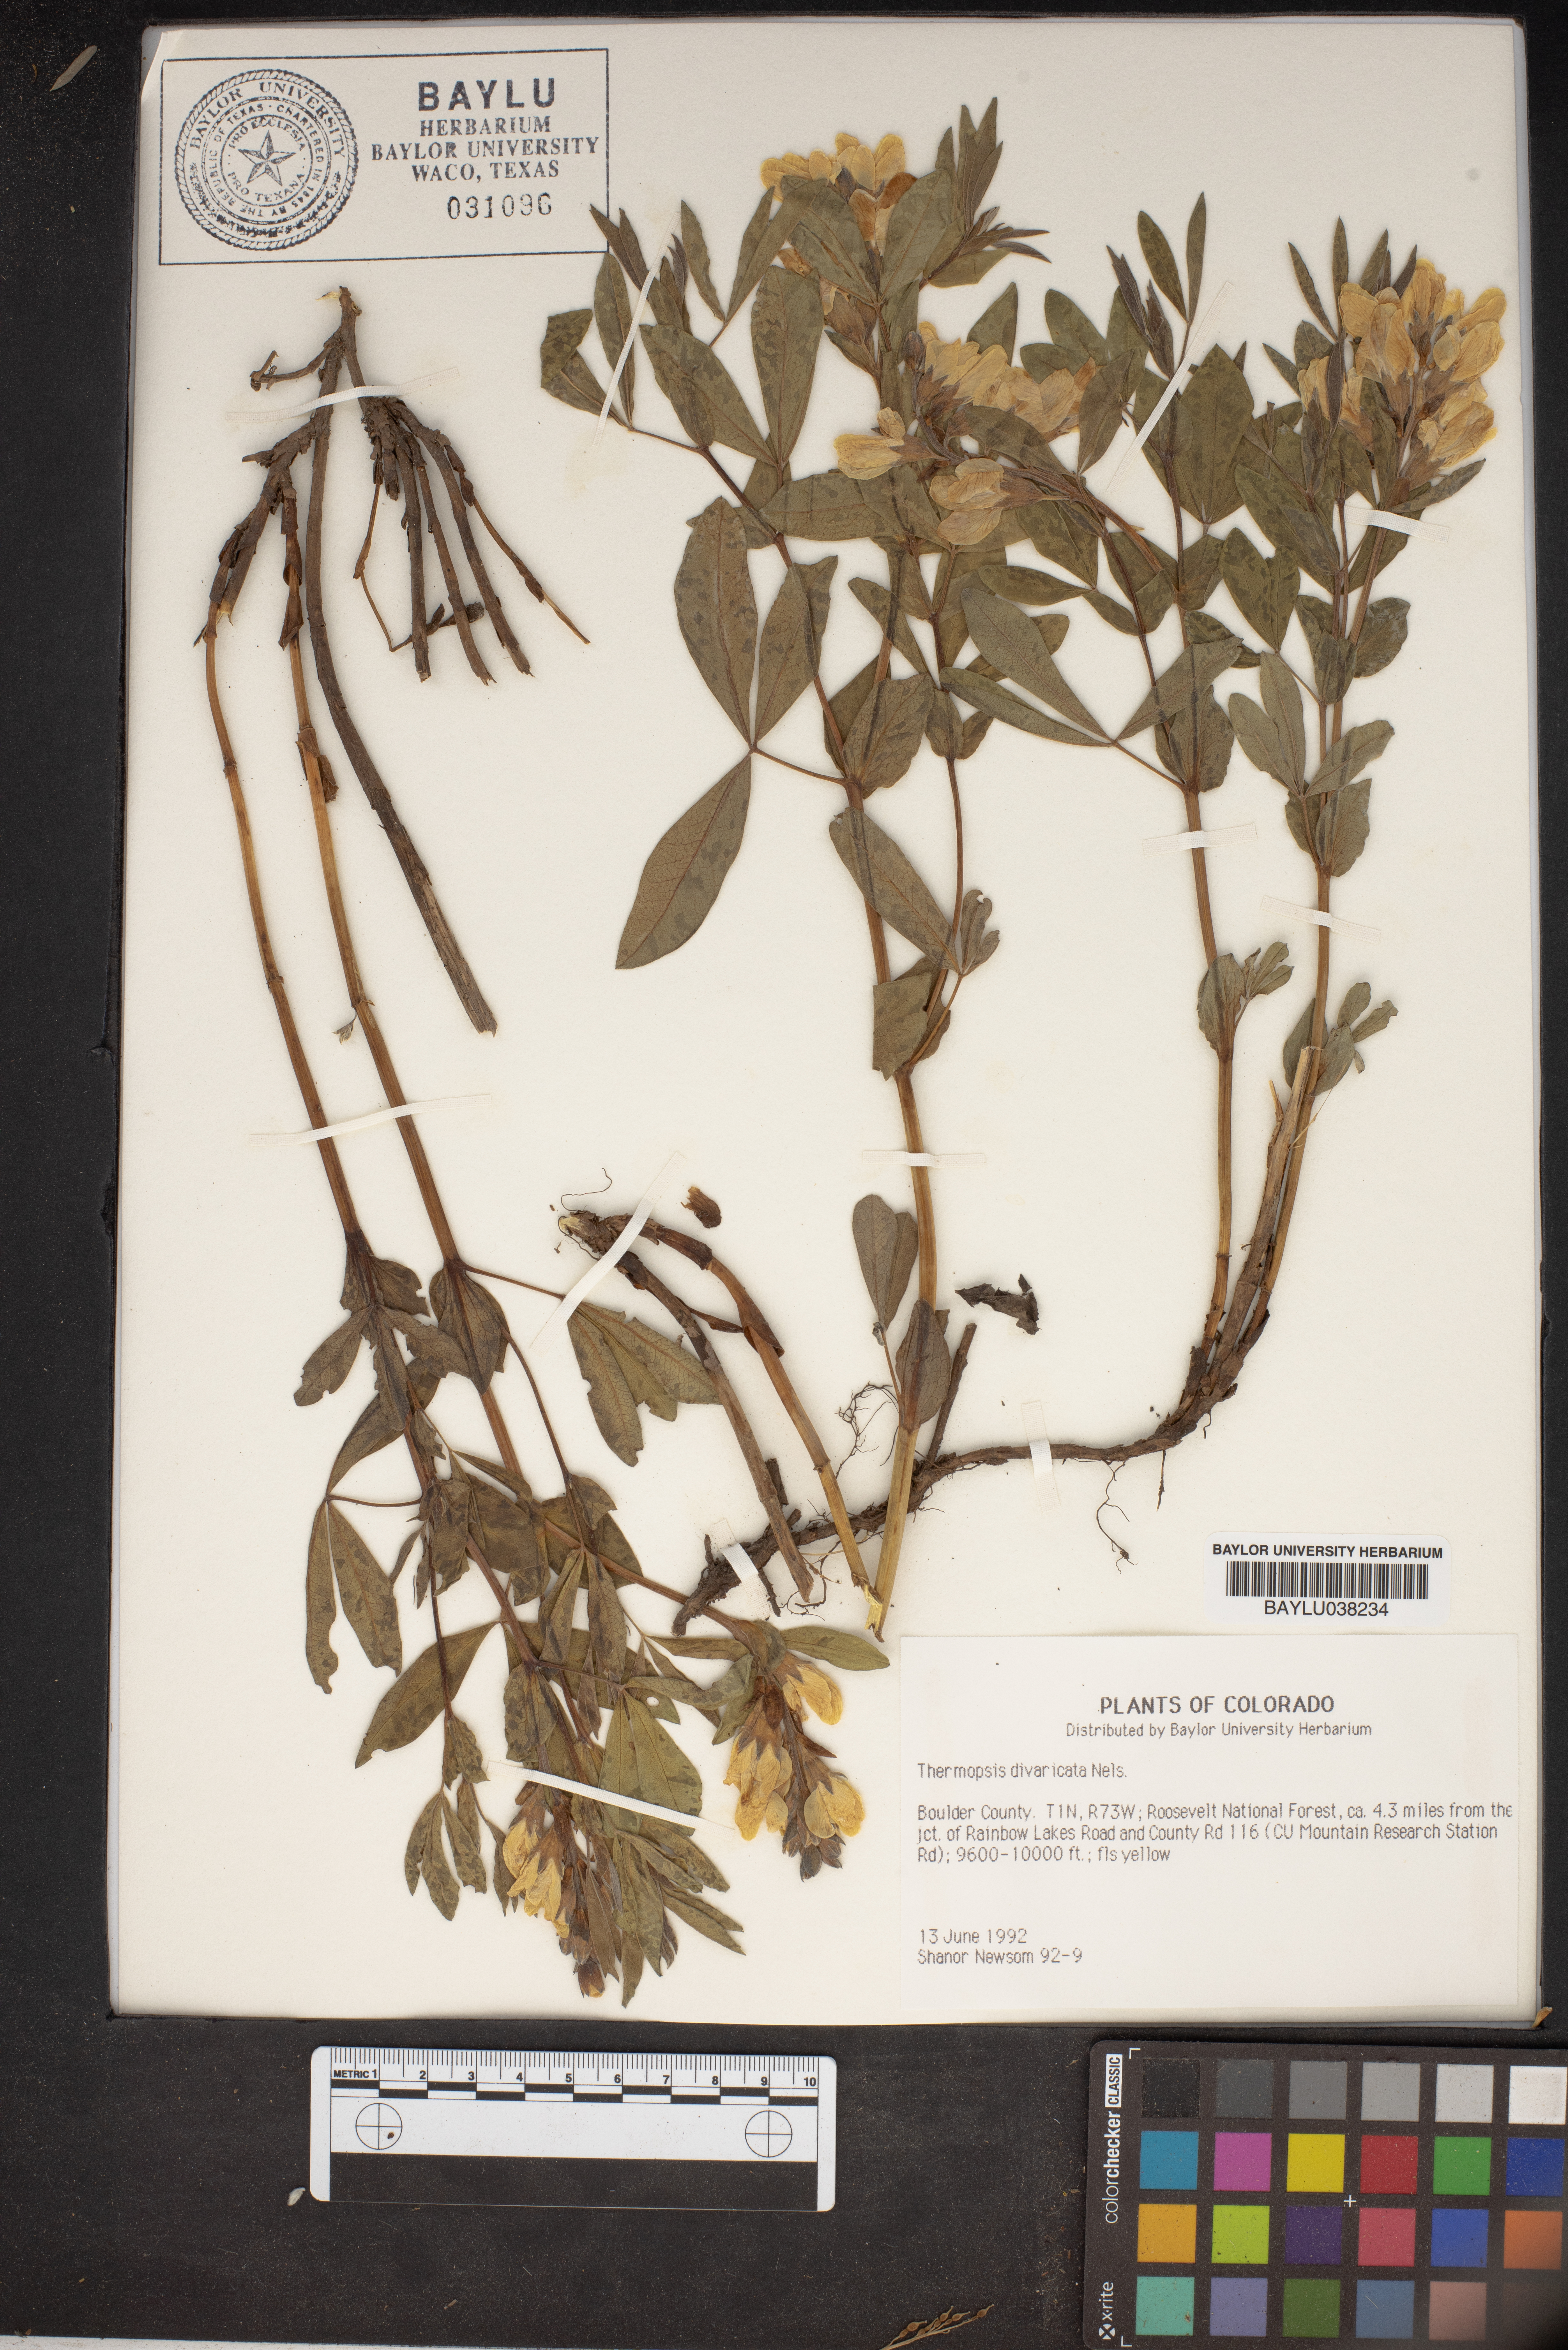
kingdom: Plantae
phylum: Tracheophyta
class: Magnoliopsida
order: Fabales
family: Fabaceae
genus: Thermopsis
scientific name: Thermopsis rhombifolia
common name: Circle-pod-pea
